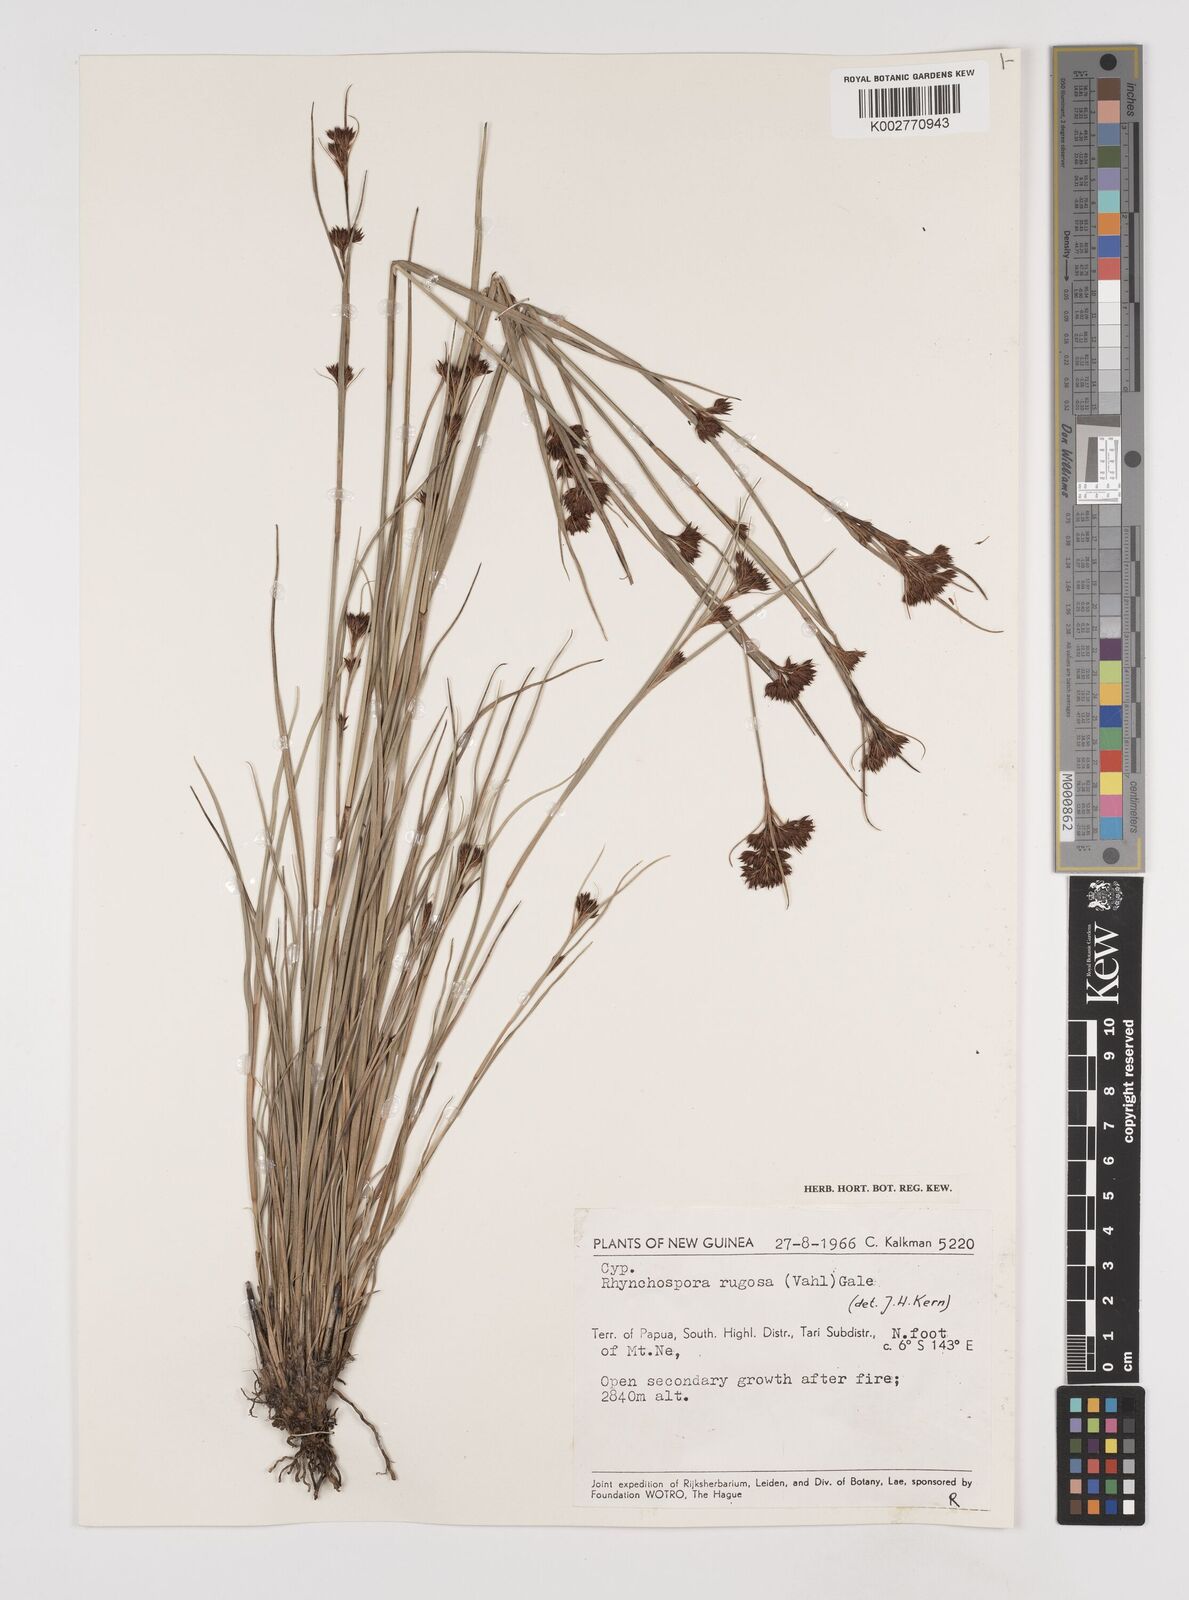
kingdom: Plantae
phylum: Tracheophyta
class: Liliopsida
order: Poales
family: Cyperaceae
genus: Rhynchospora
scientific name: Rhynchospora rugosa
